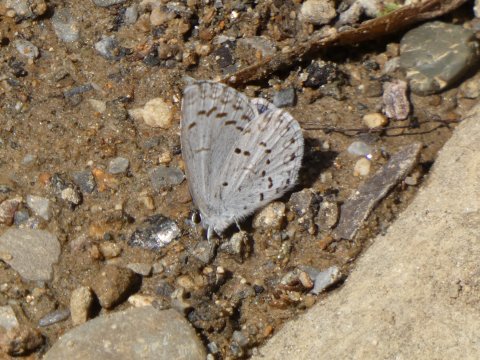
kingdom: Animalia
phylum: Arthropoda
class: Insecta
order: Lepidoptera
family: Lycaenidae
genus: Celastrina
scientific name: Celastrina ladon
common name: Spring Azure
